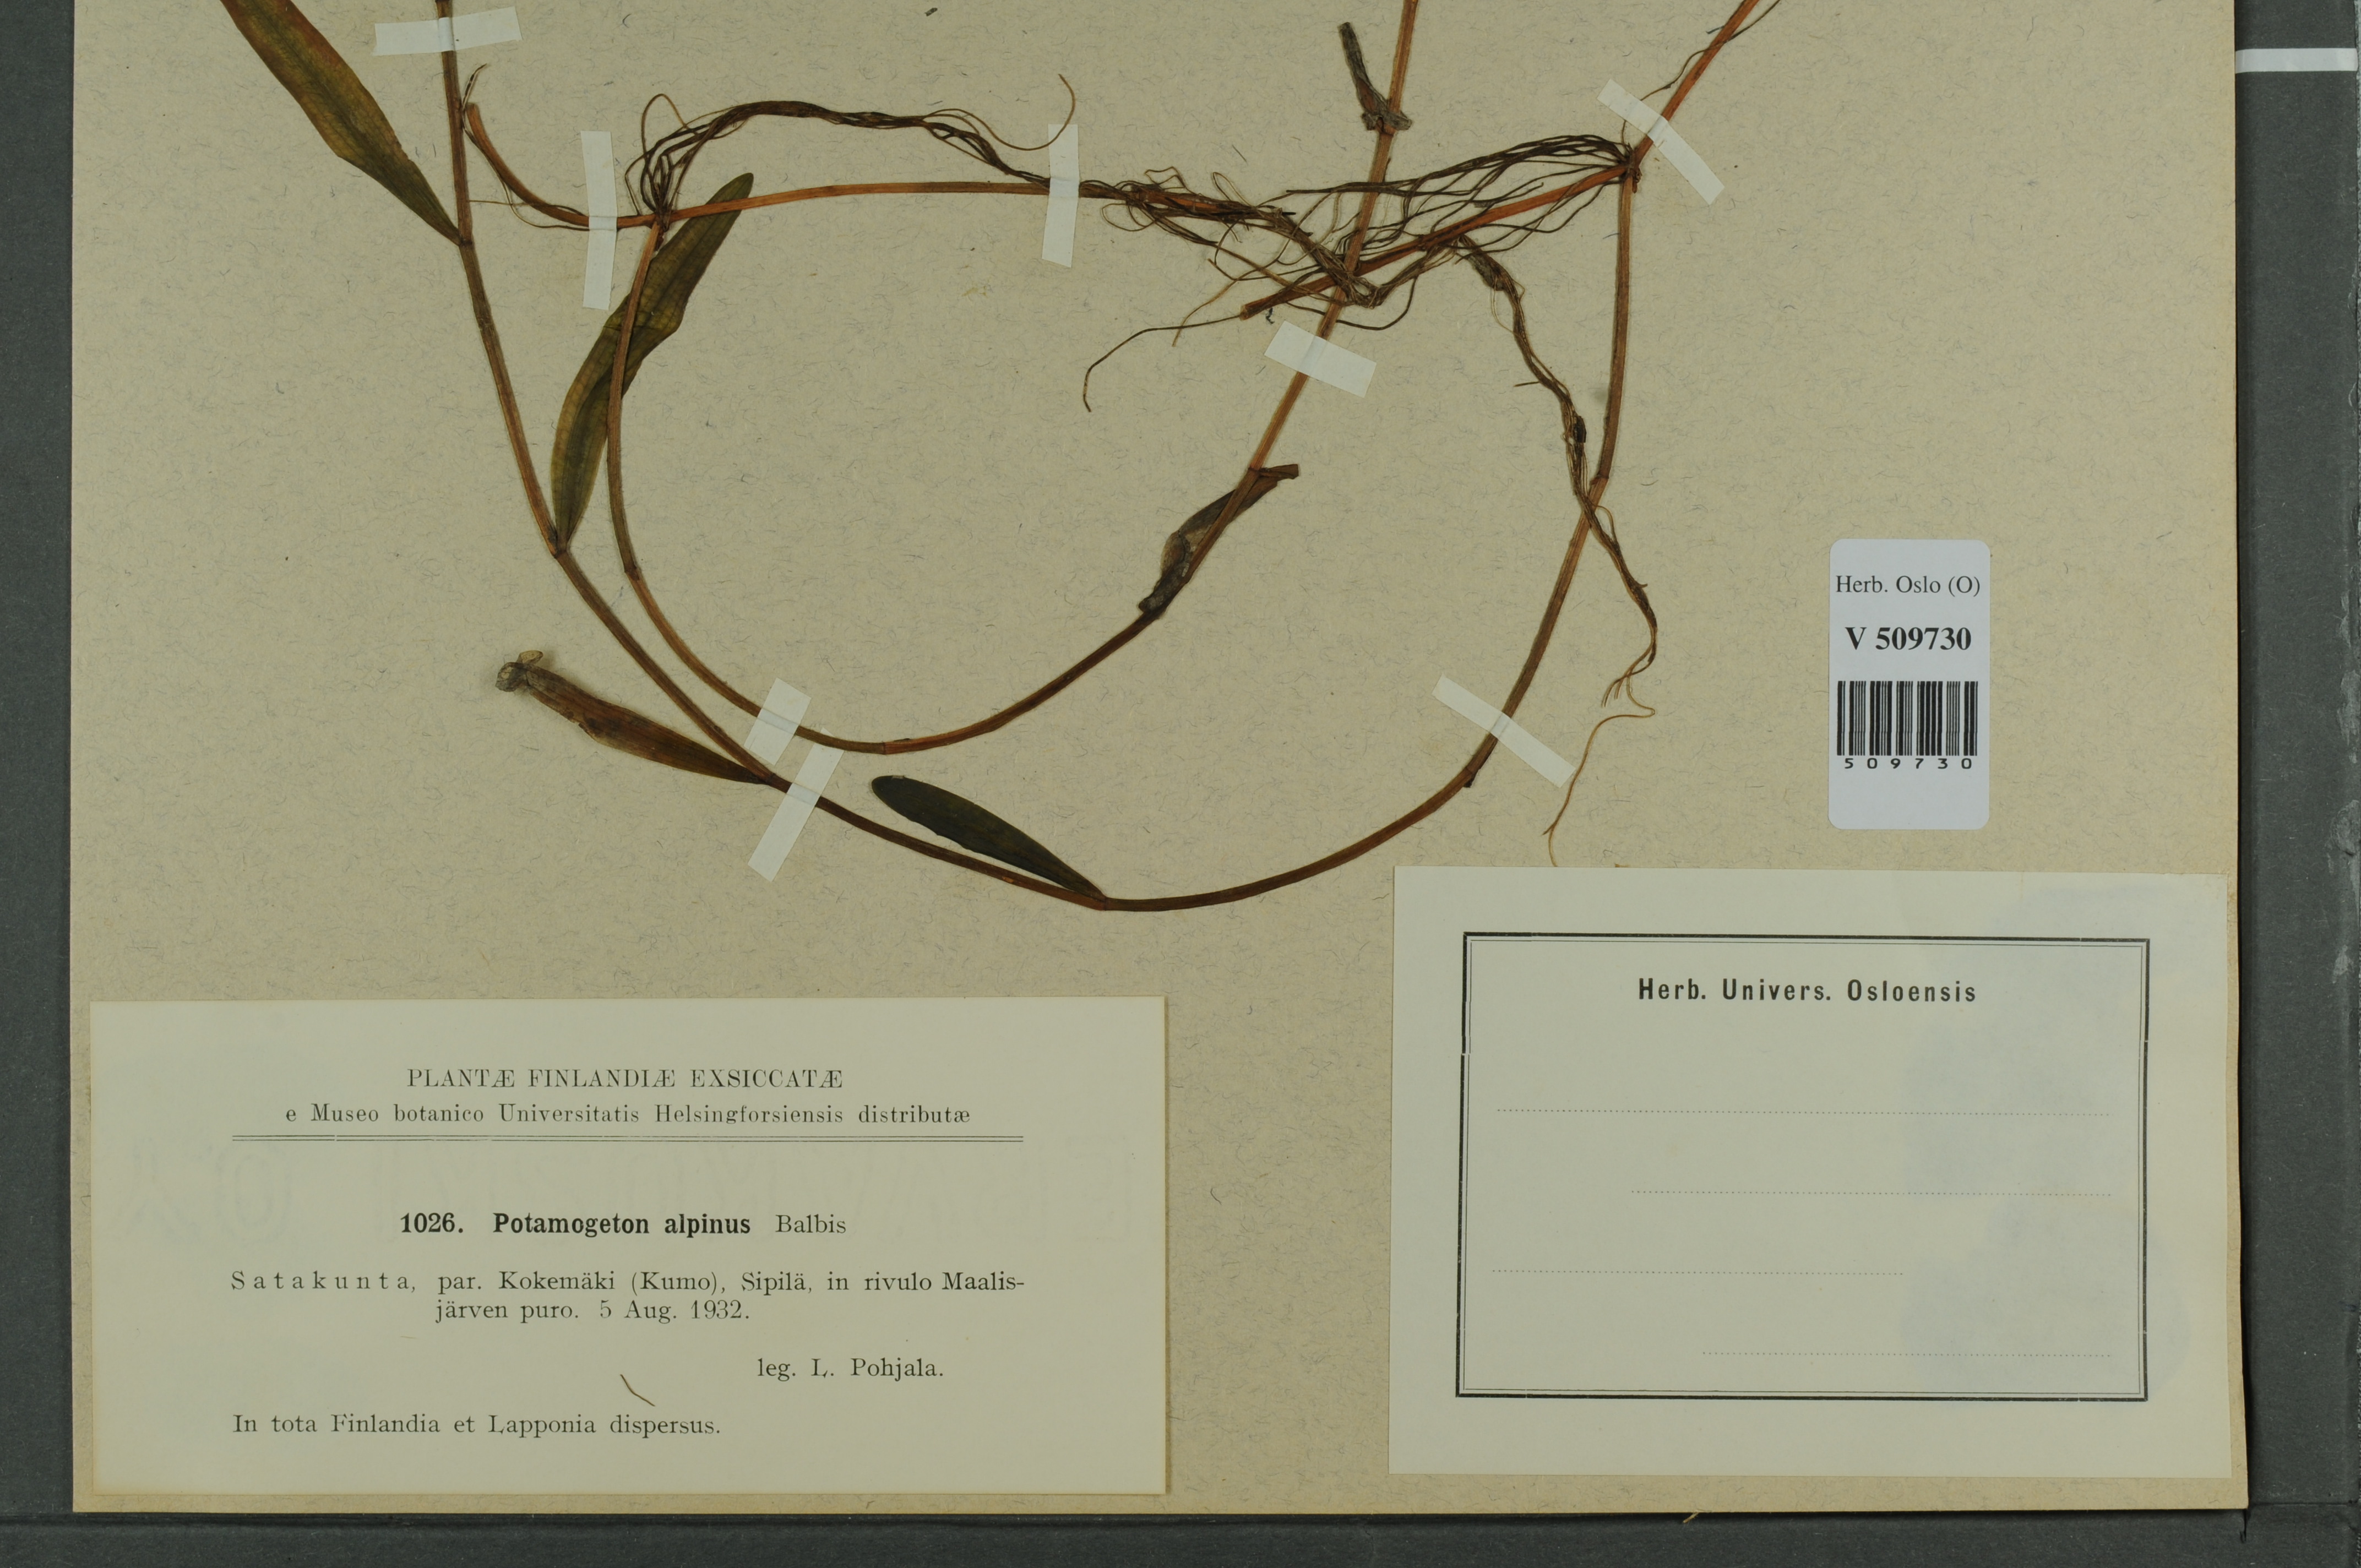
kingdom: Plantae
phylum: Tracheophyta
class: Liliopsida
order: Alismatales
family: Potamogetonaceae
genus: Potamogeton
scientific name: Potamogeton alpinus
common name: Red pondweed
